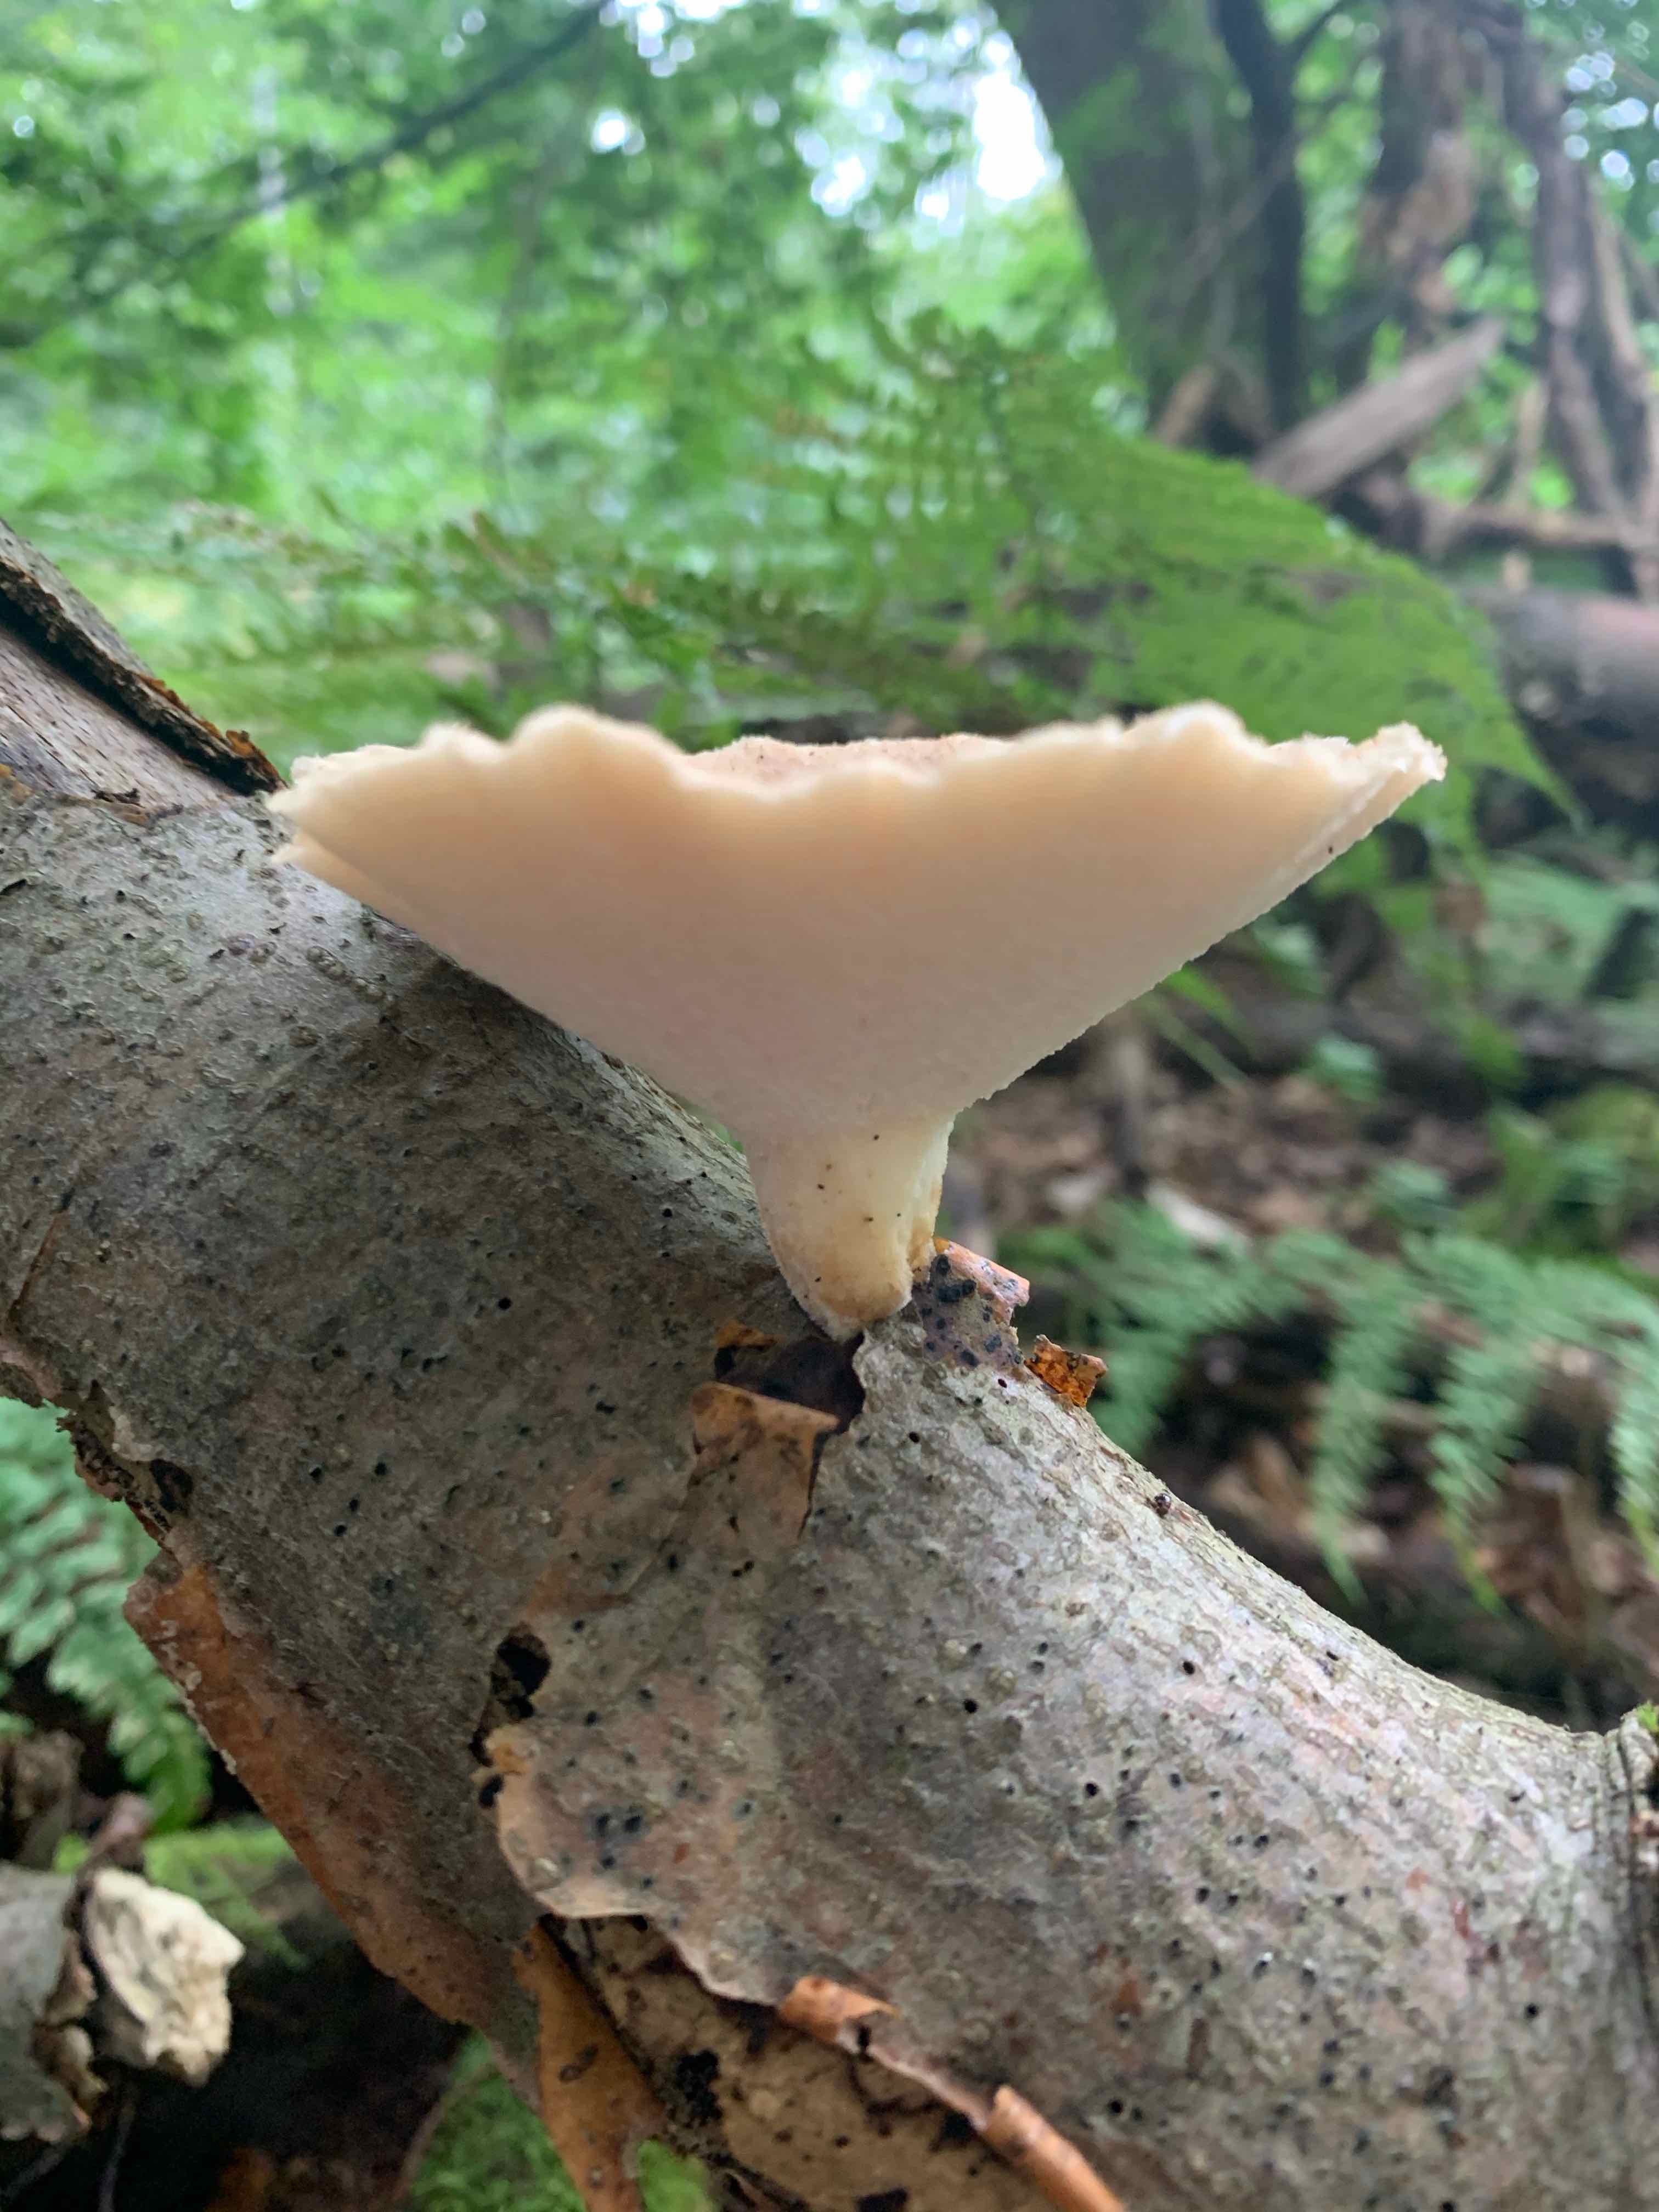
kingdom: Fungi
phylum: Basidiomycota
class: Agaricomycetes
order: Polyporales
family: Polyporaceae
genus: Polyporus
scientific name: Polyporus tuberaster
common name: knoldet stilkporesvamp
